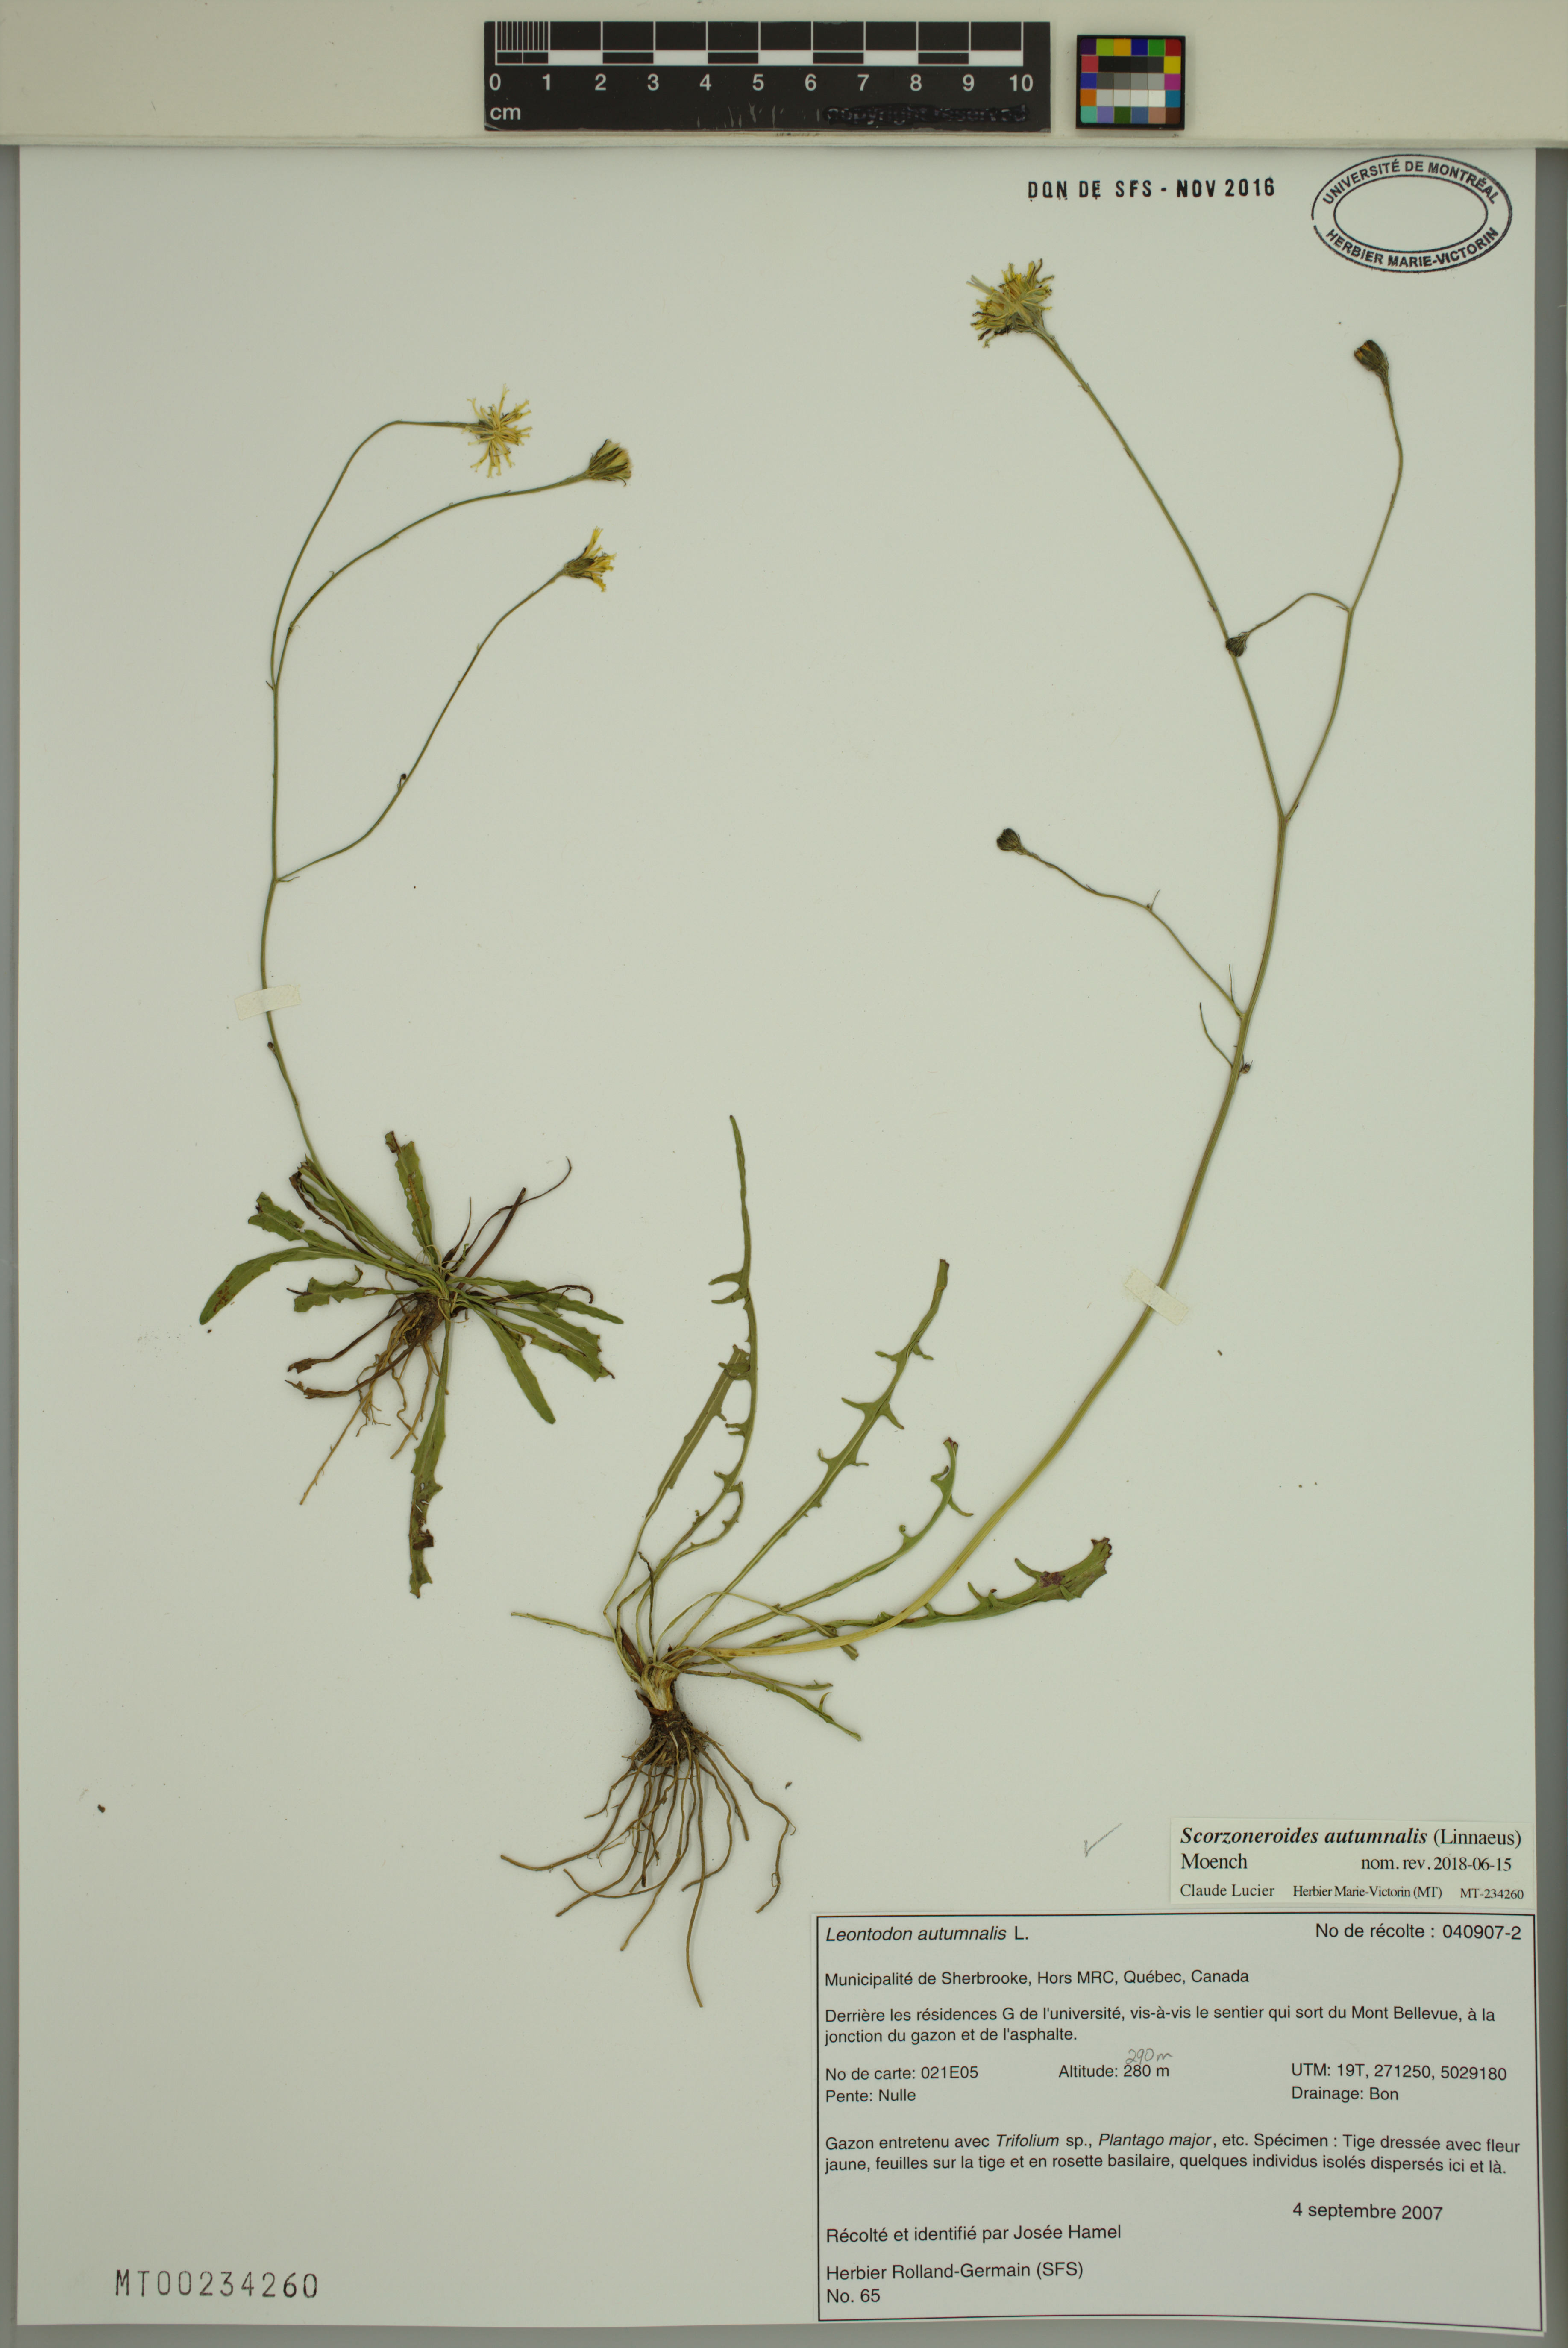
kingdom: Plantae
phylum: Tracheophyta
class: Magnoliopsida
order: Asterales
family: Asteraceae
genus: Scorzoneroides
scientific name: Scorzoneroides autumnalis
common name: Autumn hawkbit
